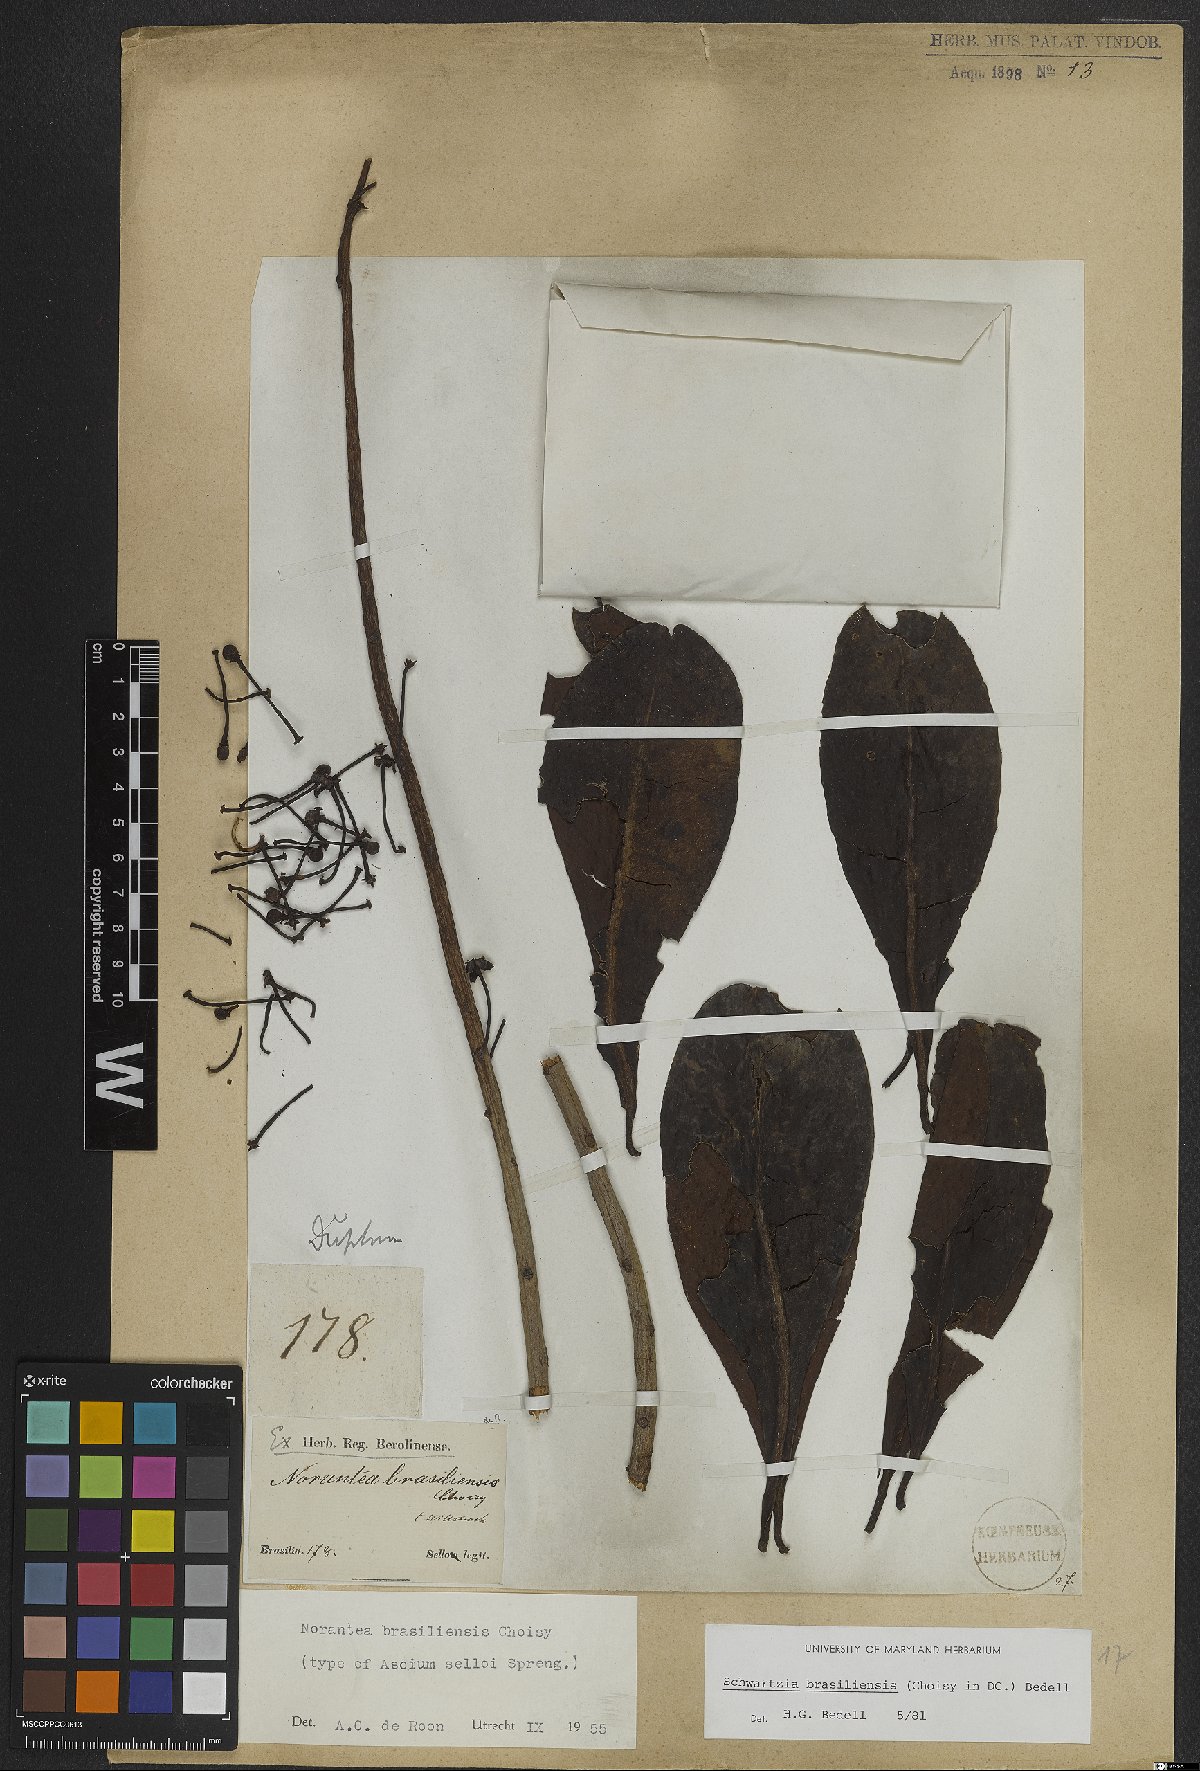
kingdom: Plantae
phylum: Tracheophyta
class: Magnoliopsida
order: Ericales
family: Marcgraviaceae
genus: Schwartzia
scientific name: Schwartzia brasiliensis
